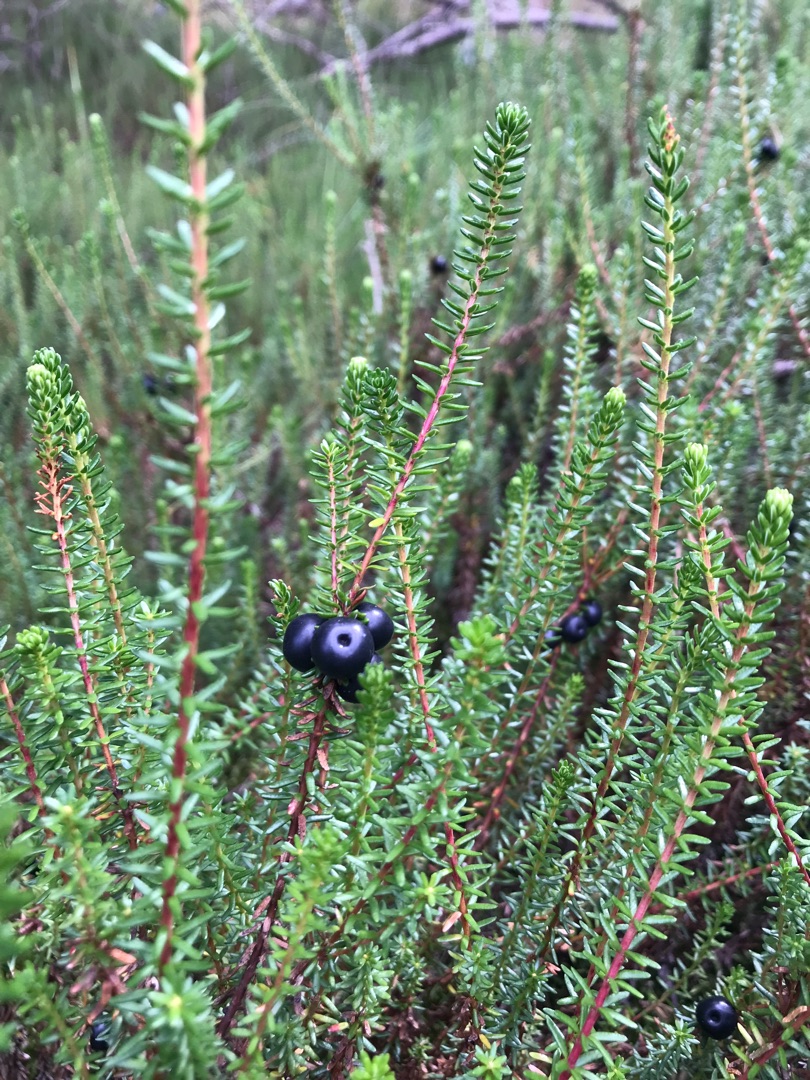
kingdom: Plantae
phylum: Tracheophyta
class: Magnoliopsida
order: Ericales
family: Ericaceae
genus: Empetrum
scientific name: Empetrum nigrum
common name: Revling
